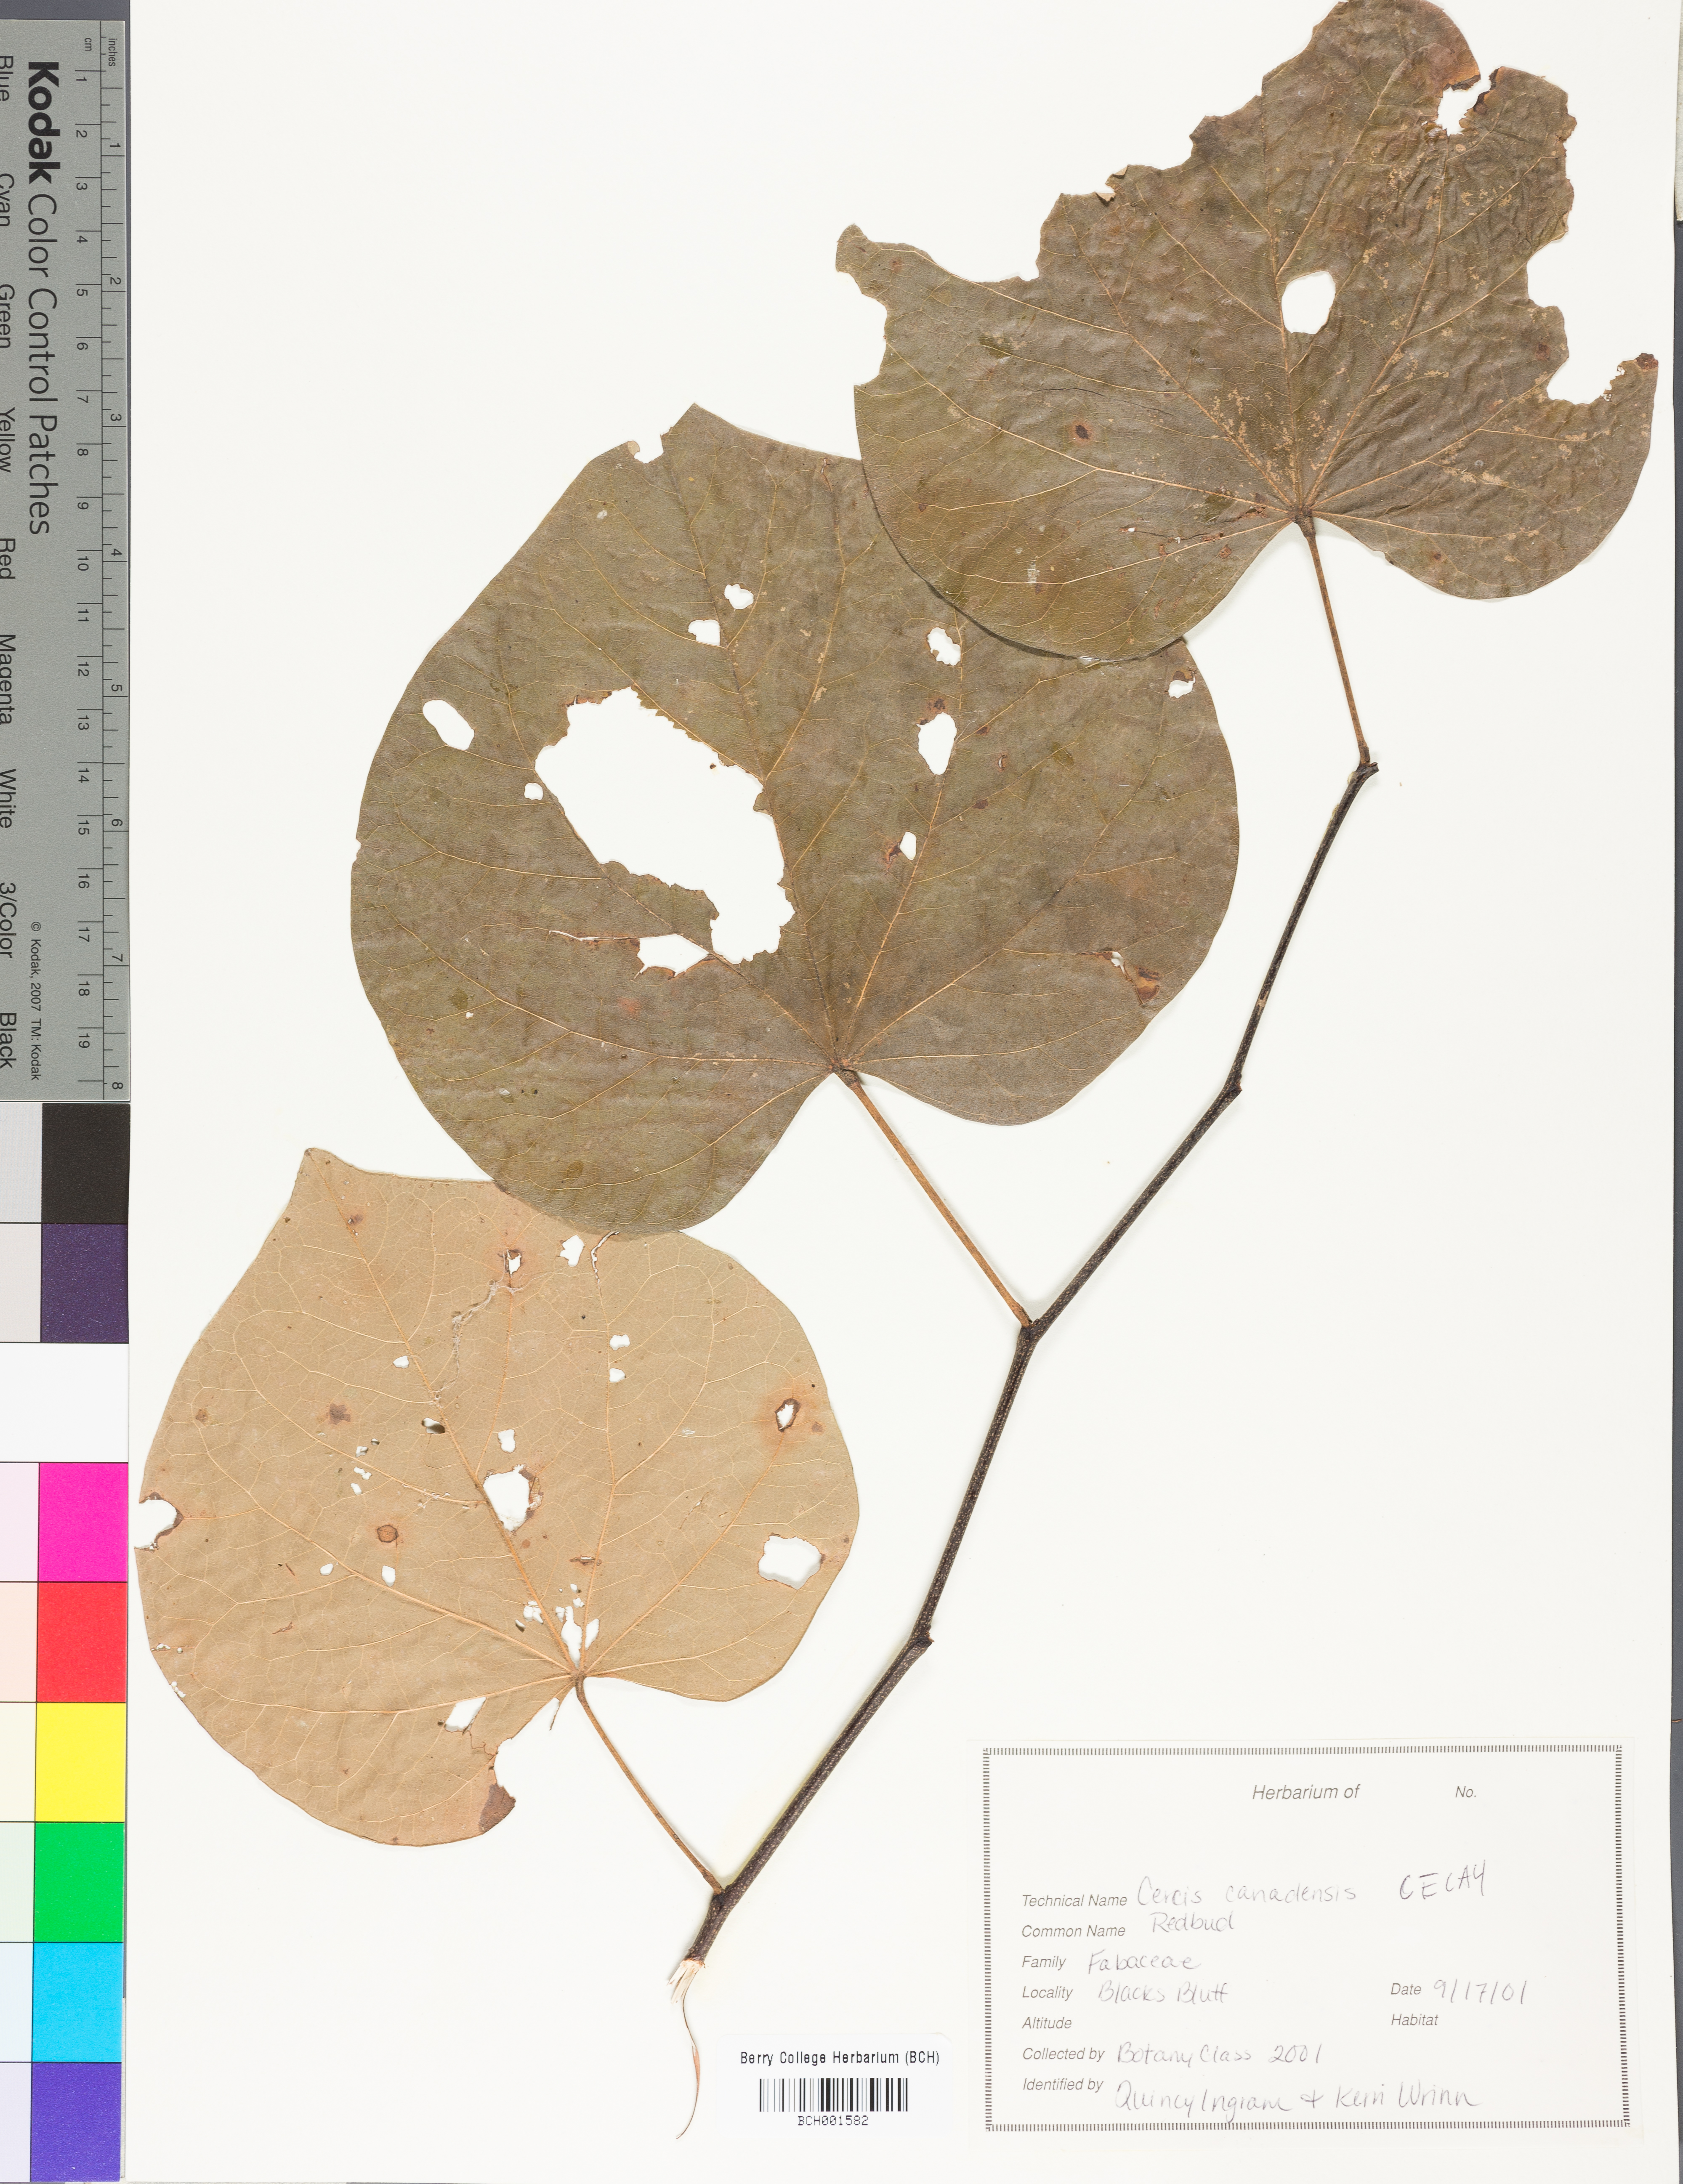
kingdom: Plantae
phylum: Tracheophyta
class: Magnoliopsida
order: Fabales
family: Fabaceae
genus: Cercis
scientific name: Cercis canadensis
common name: Eastern redbud
